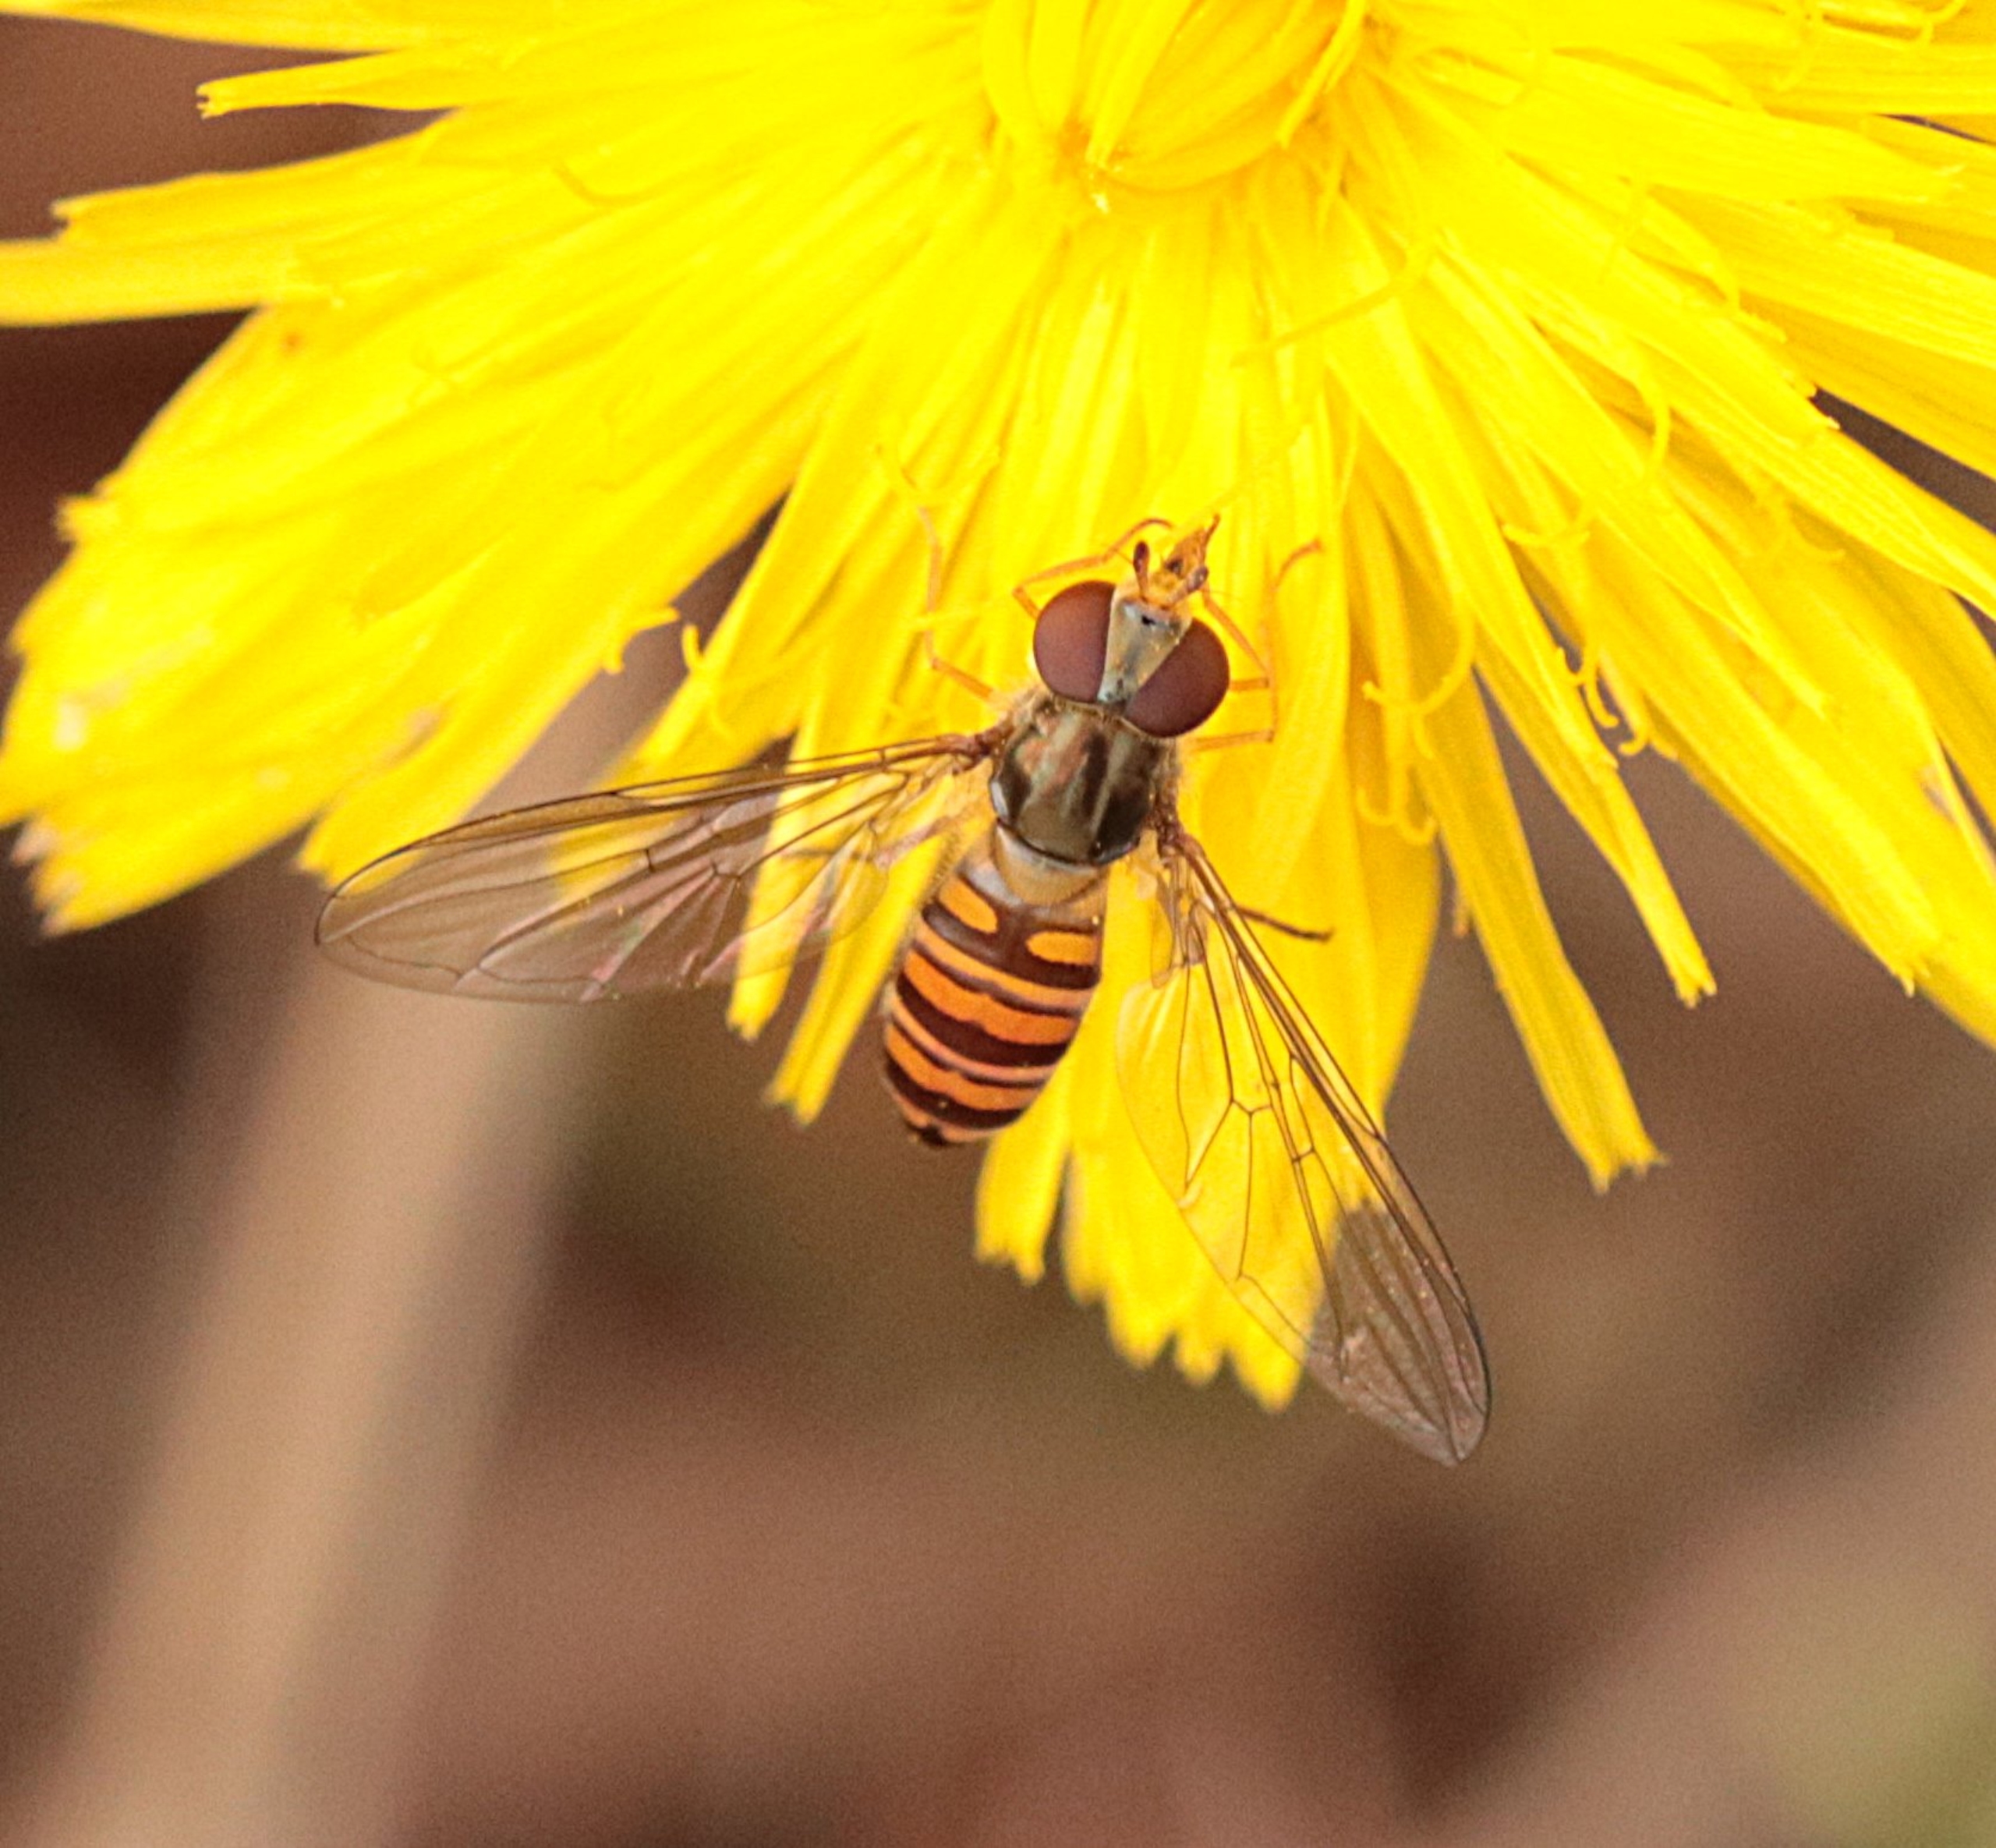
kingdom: Animalia
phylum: Arthropoda
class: Insecta
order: Diptera
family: Syrphidae
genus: Episyrphus
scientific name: Episyrphus balteatus
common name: Dobbeltbåndet svirreflue
